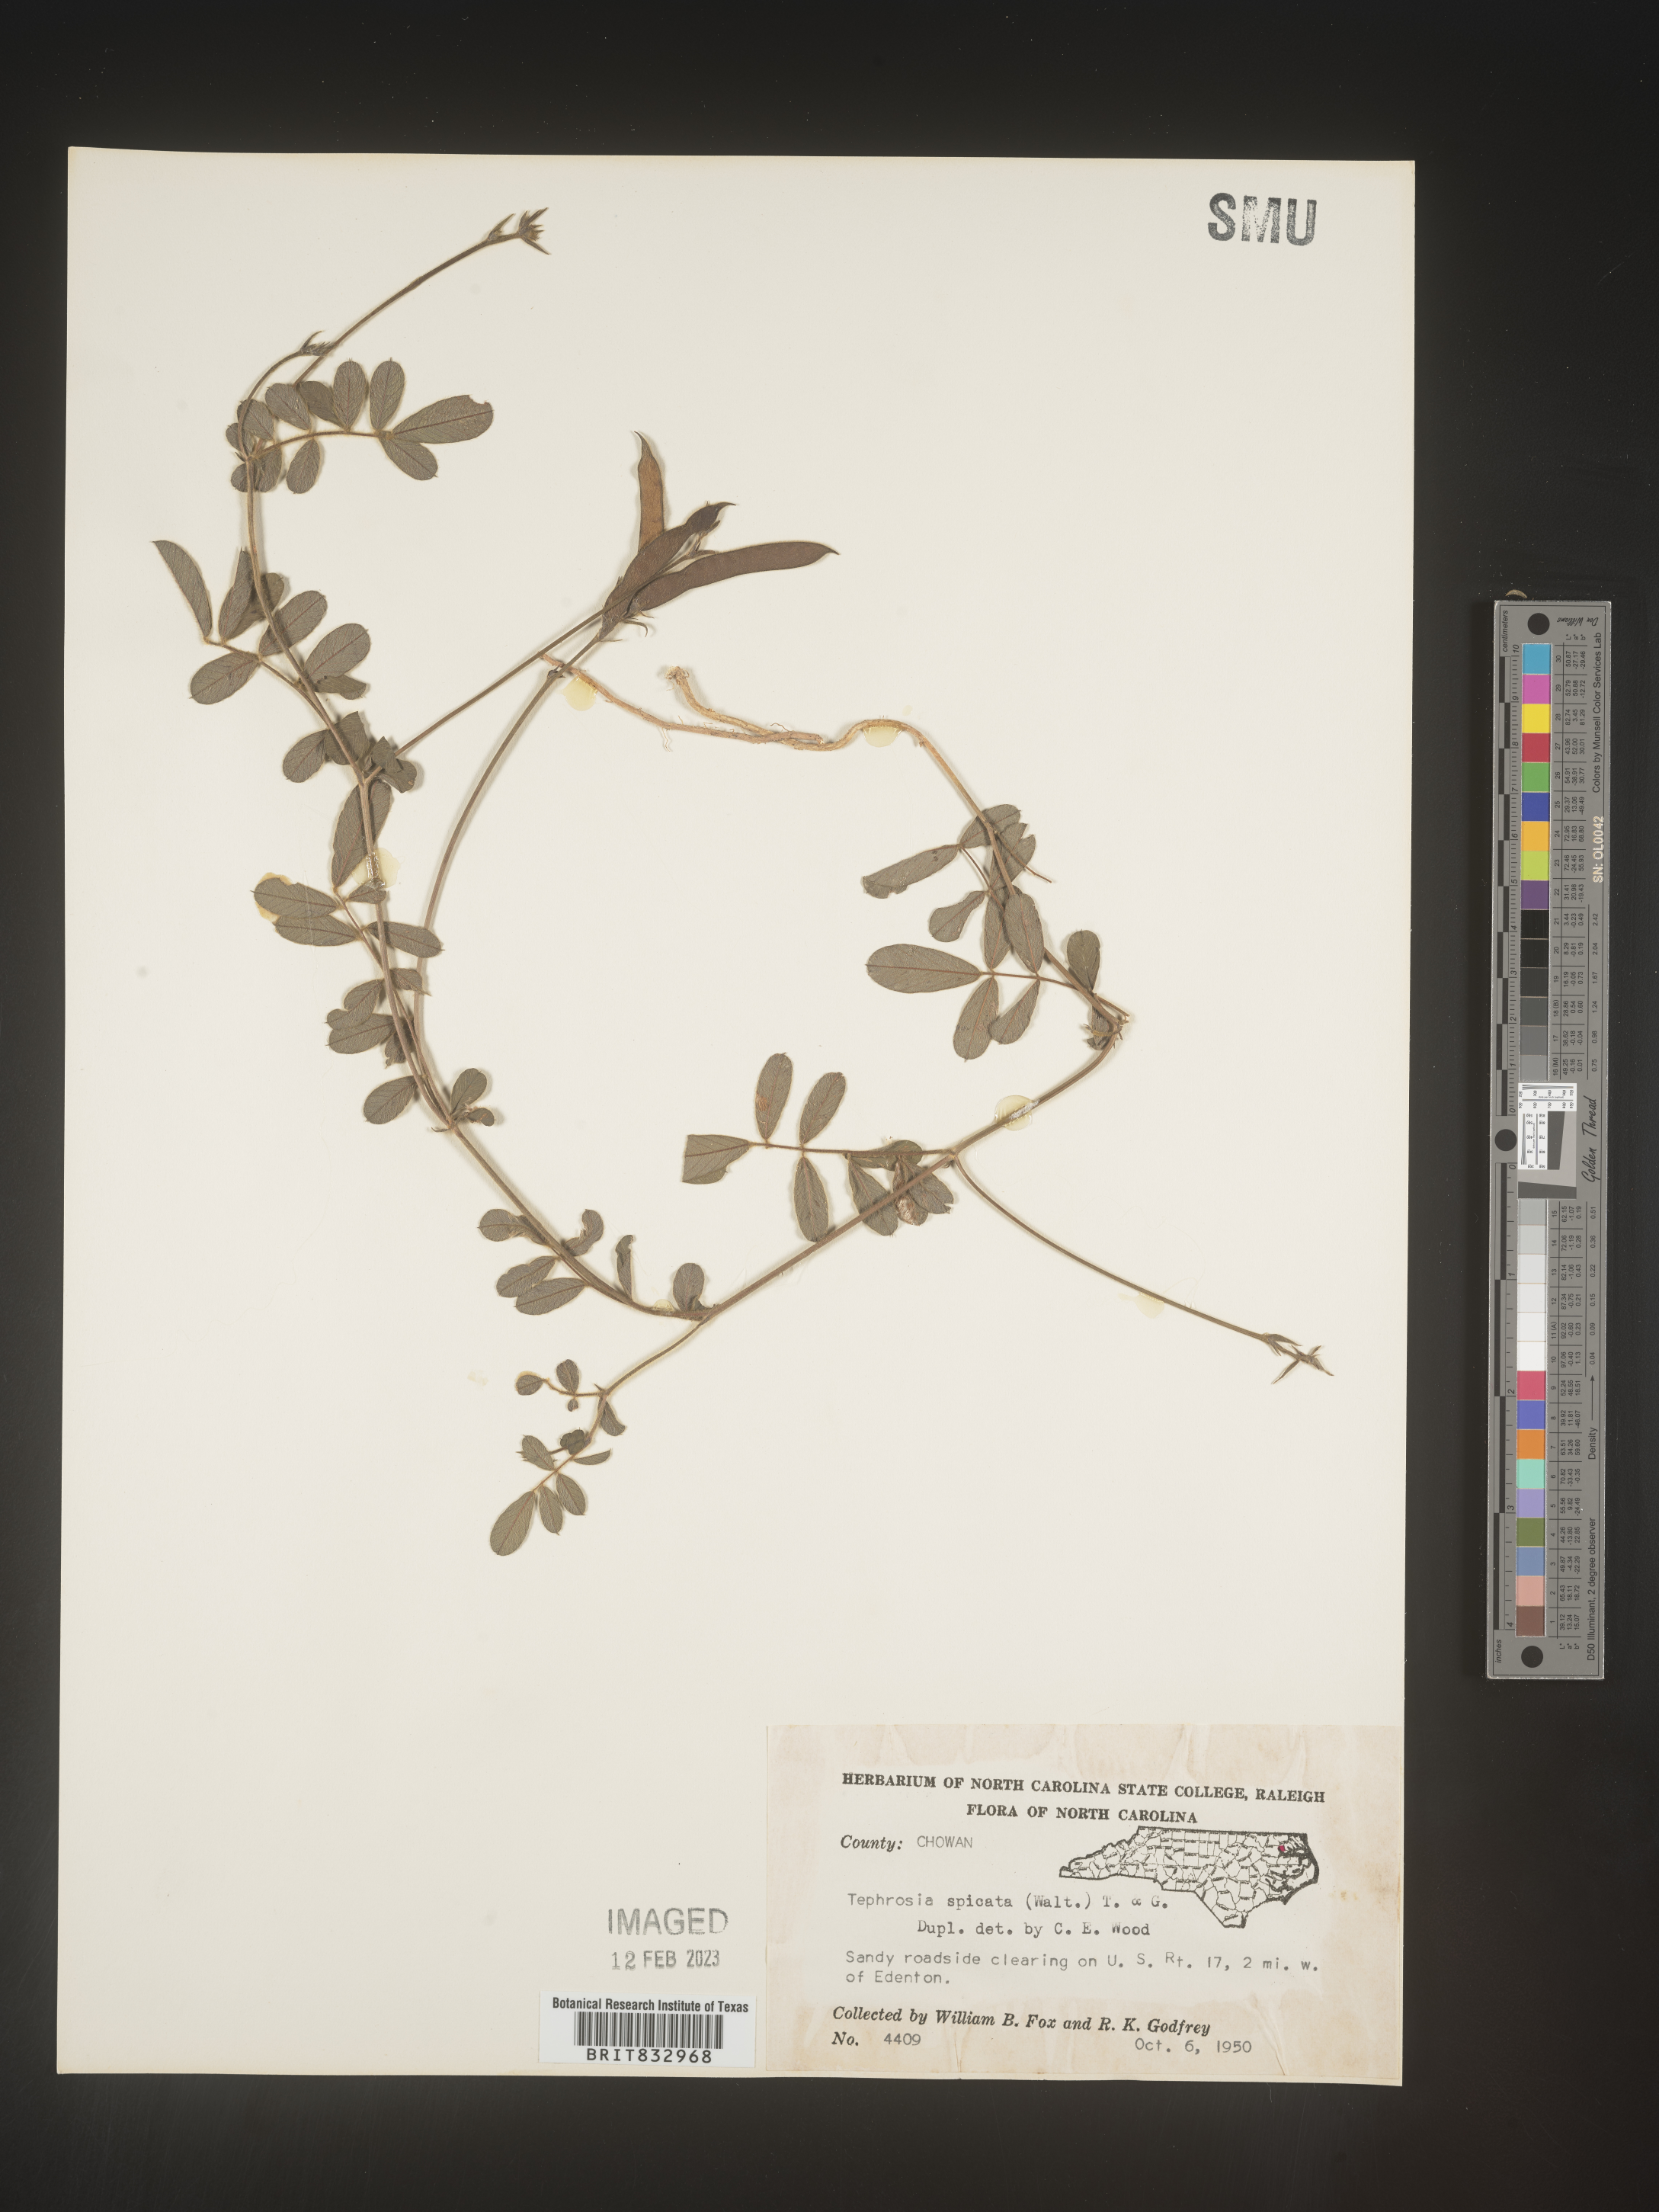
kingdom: Plantae
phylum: Tracheophyta
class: Magnoliopsida
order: Fabales
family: Fabaceae
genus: Tephrosia
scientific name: Tephrosia spicata
